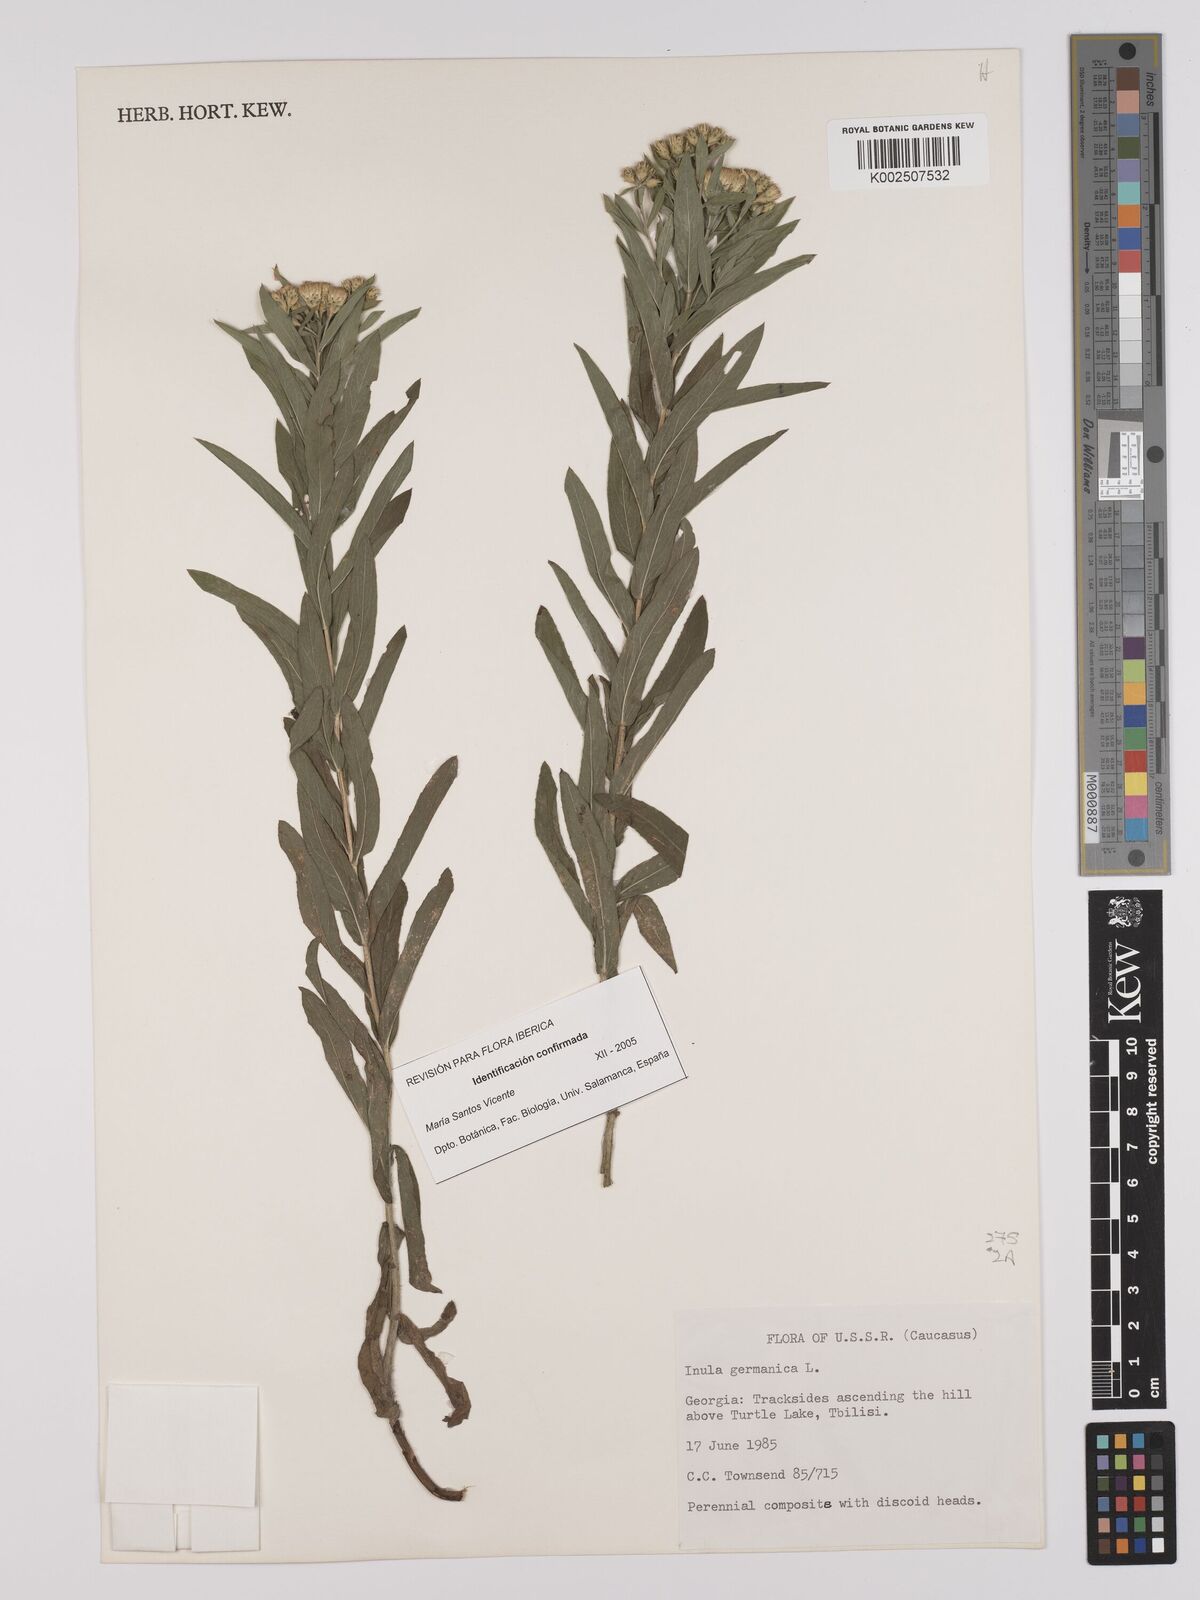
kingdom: Plantae
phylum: Tracheophyta
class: Magnoliopsida
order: Asterales
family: Asteraceae
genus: Pentanema
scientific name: Pentanema germanicum
